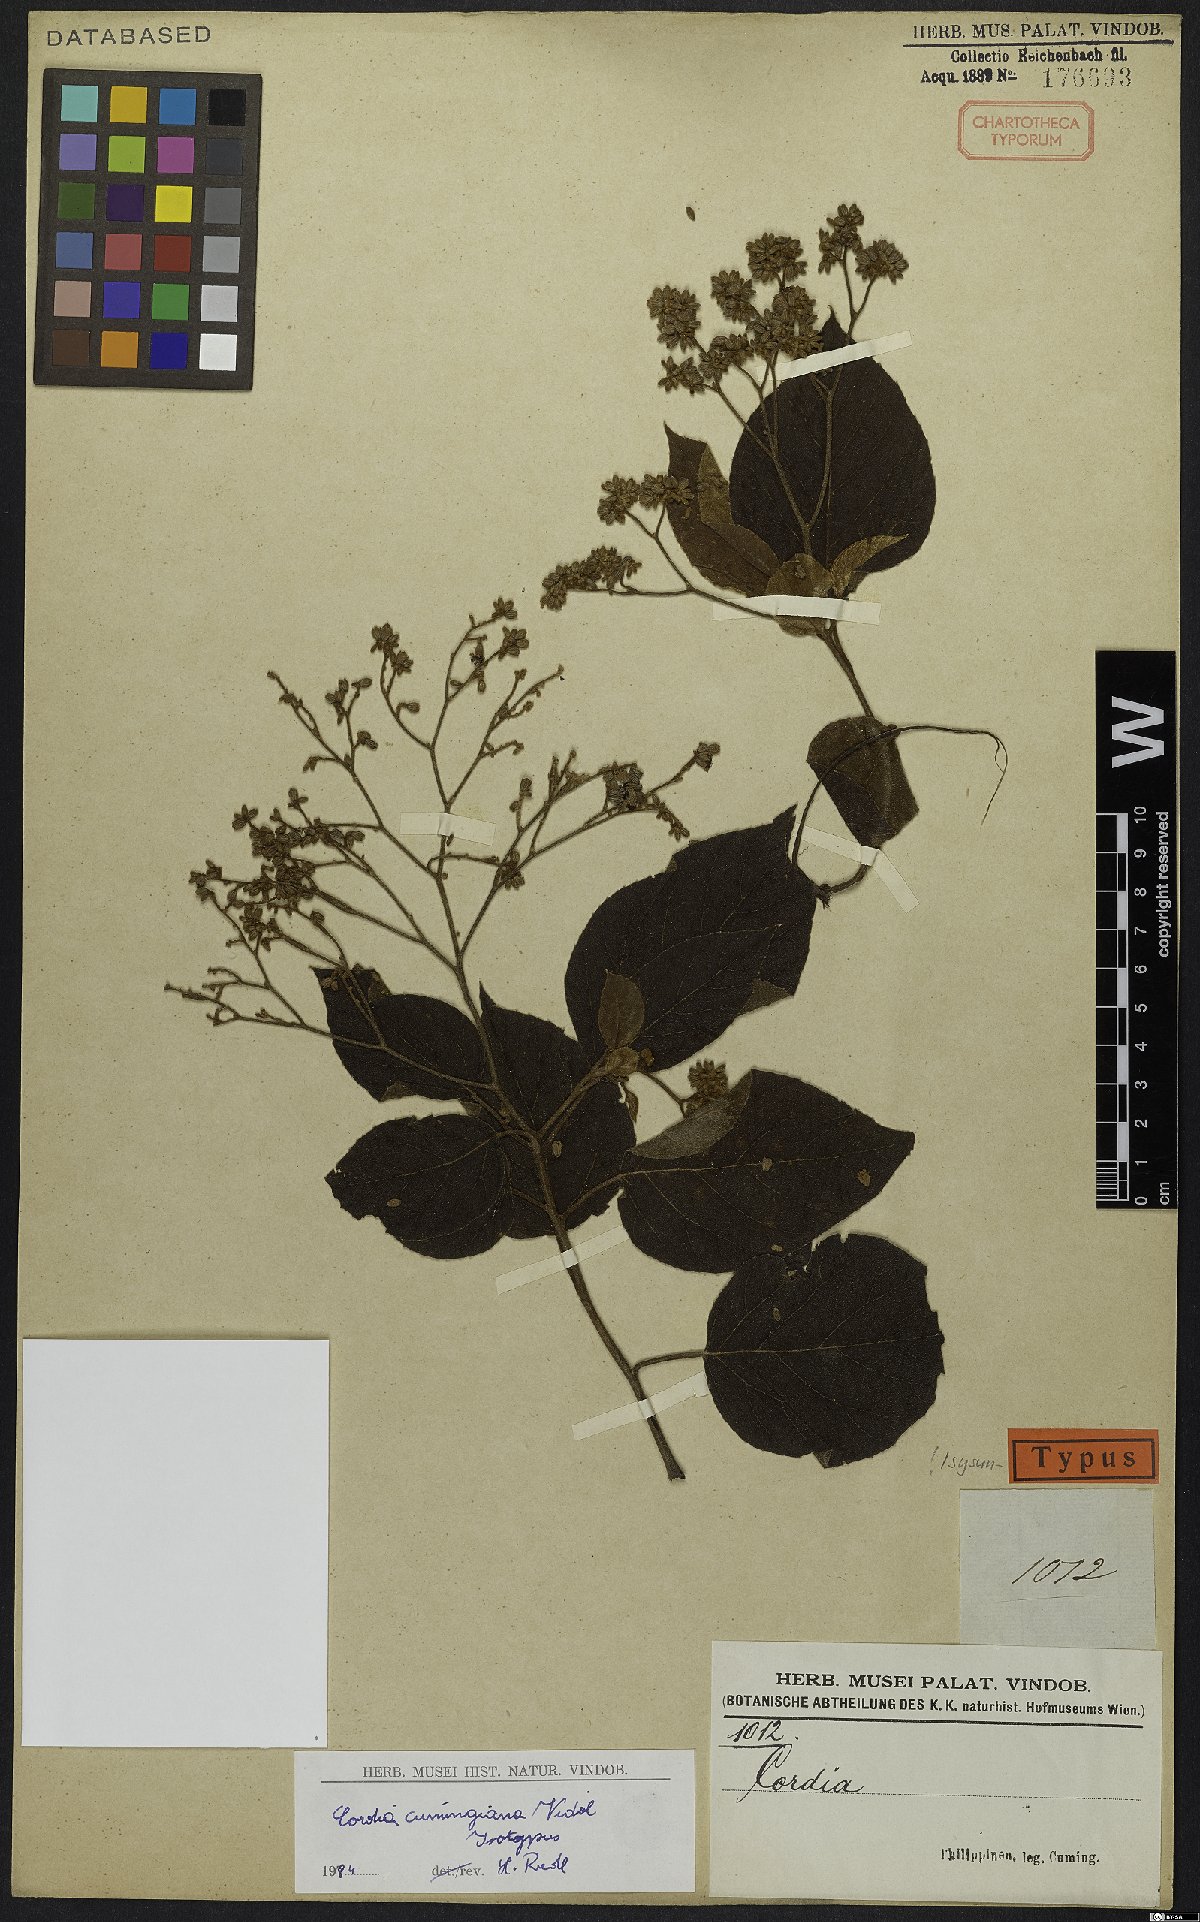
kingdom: Plantae
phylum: Tracheophyta
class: Magnoliopsida
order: Boraginales
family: Cordiaceae
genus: Cordia
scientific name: Cordia aspera
